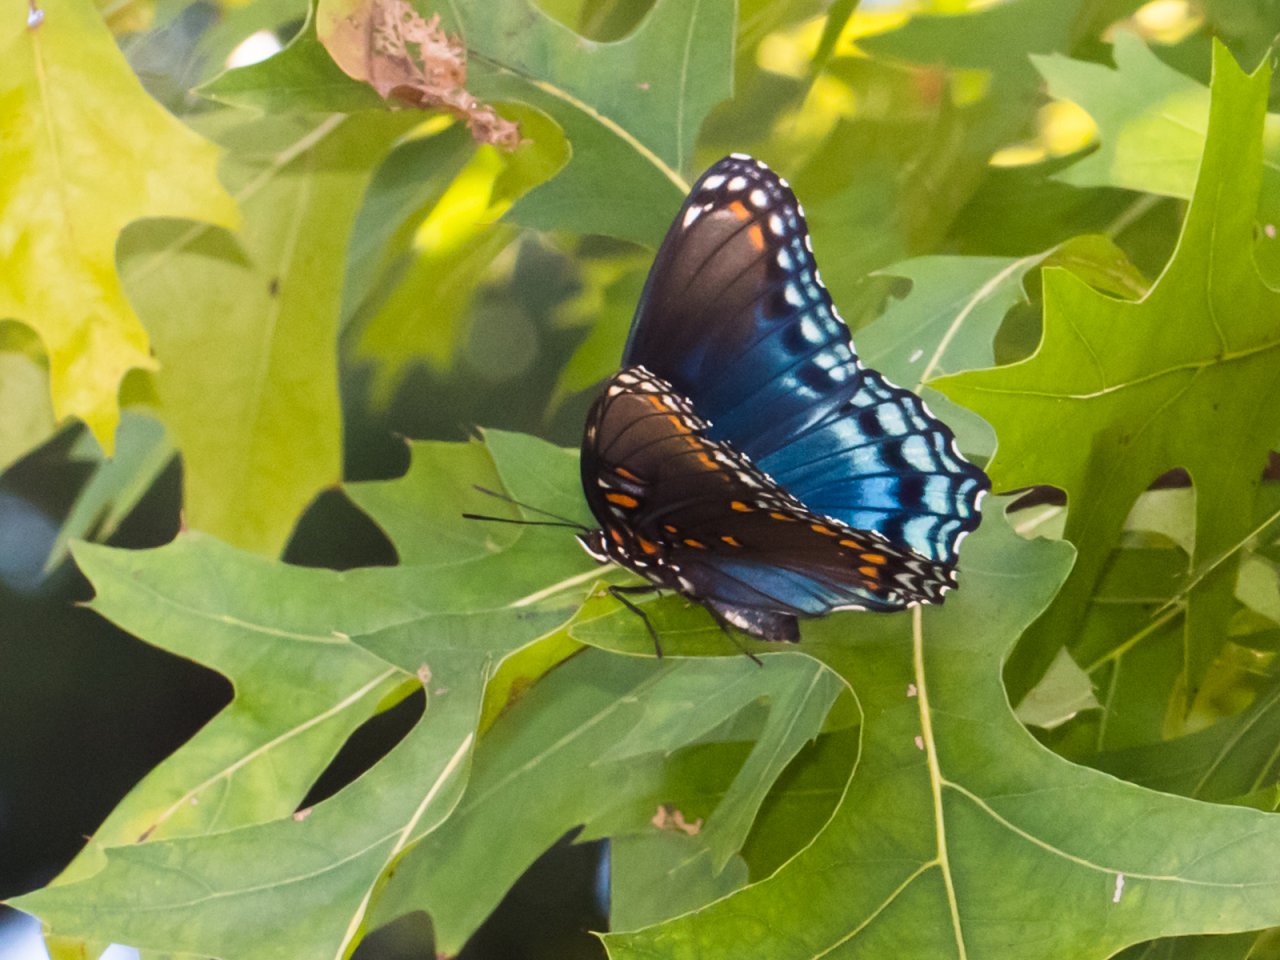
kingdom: Animalia
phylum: Arthropoda
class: Insecta
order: Lepidoptera
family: Nymphalidae
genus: Limenitis
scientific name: Limenitis astyanax
